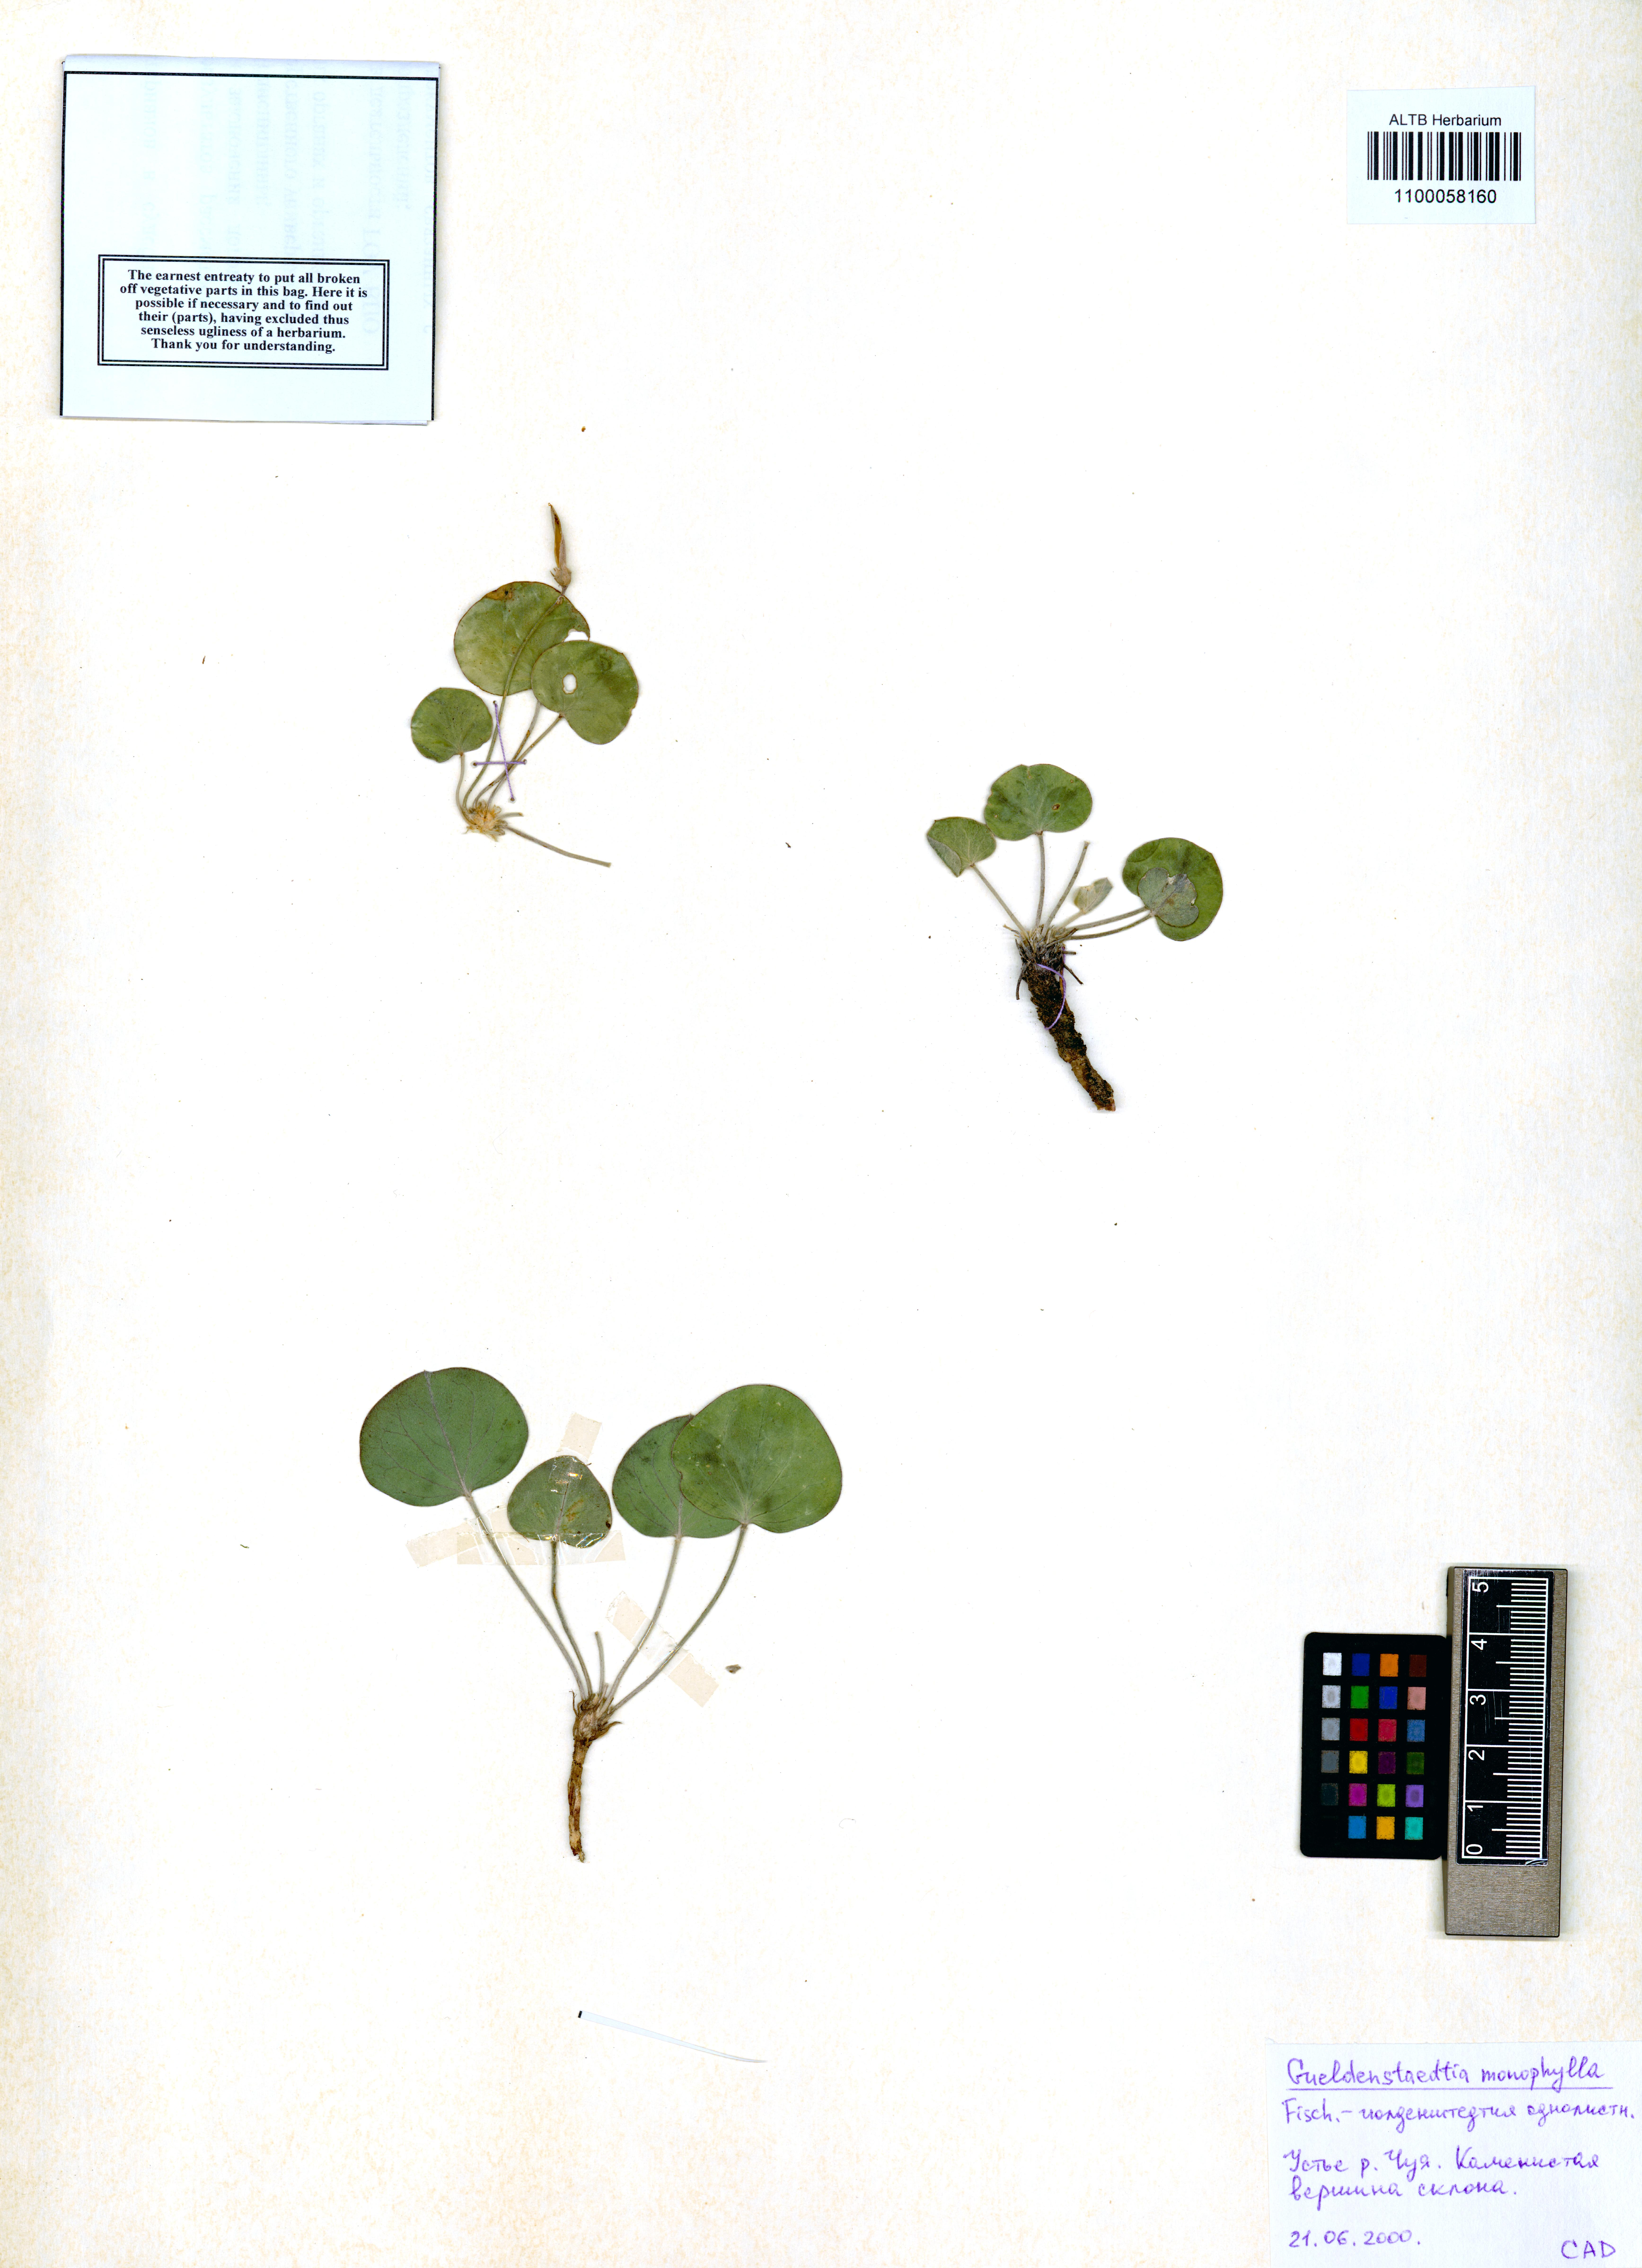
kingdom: Plantae
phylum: Tracheophyta
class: Magnoliopsida
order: Fabales
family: Fabaceae
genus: Gueldenstaedtia
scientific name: Gueldenstaedtia monophylla
